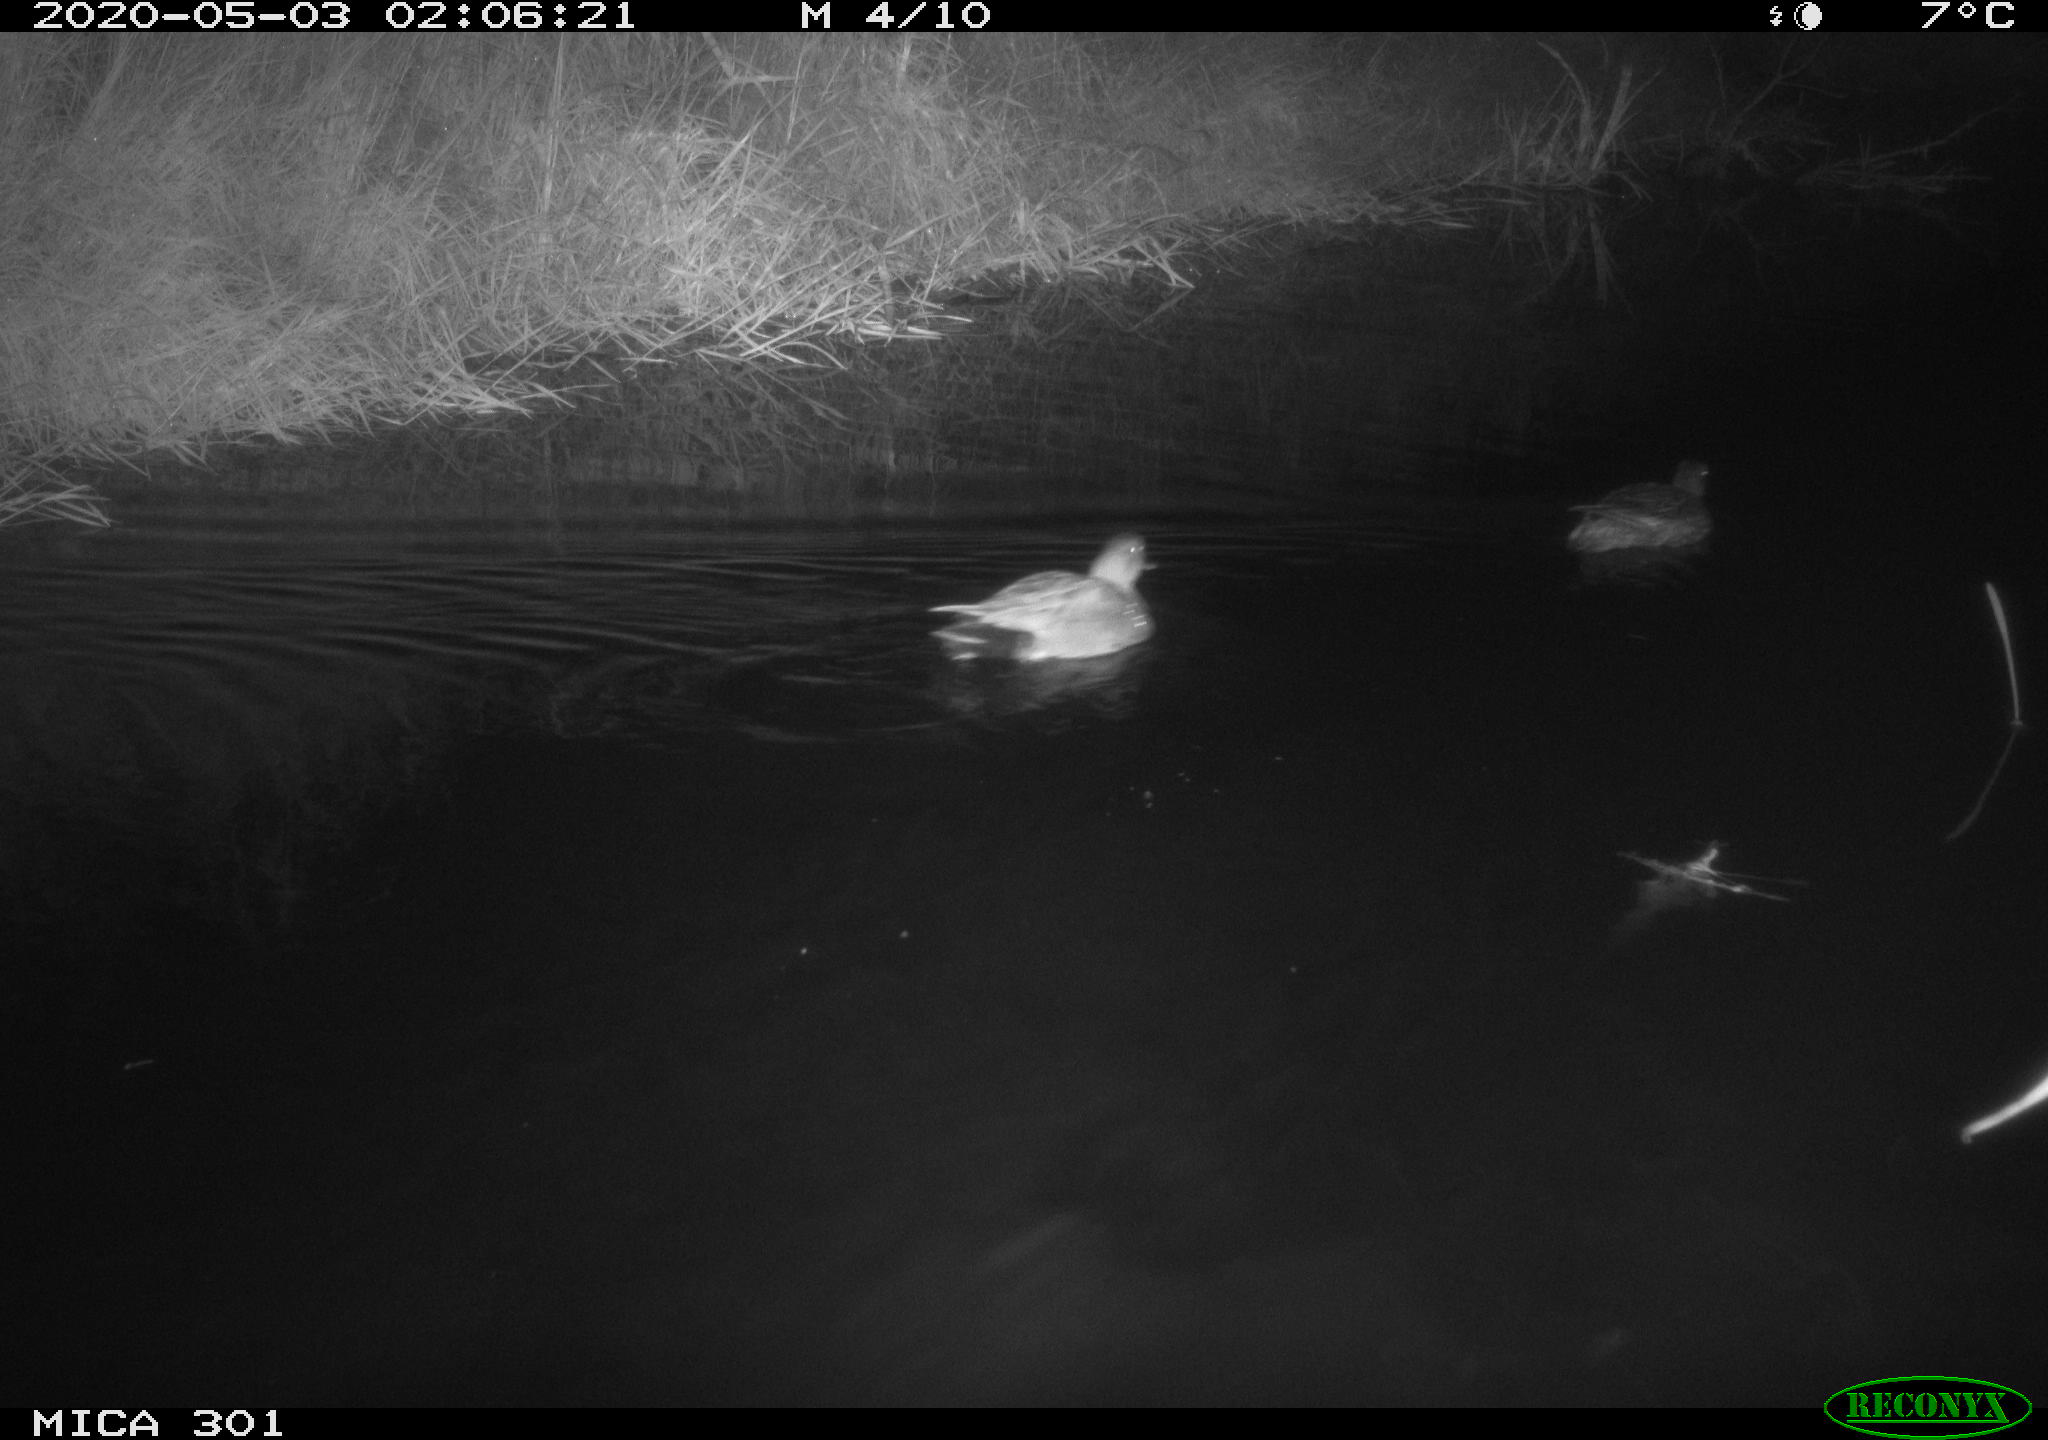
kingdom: Animalia
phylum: Chordata
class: Aves
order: Anseriformes
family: Anatidae
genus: Mareca
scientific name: Mareca strepera
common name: Gadwall
